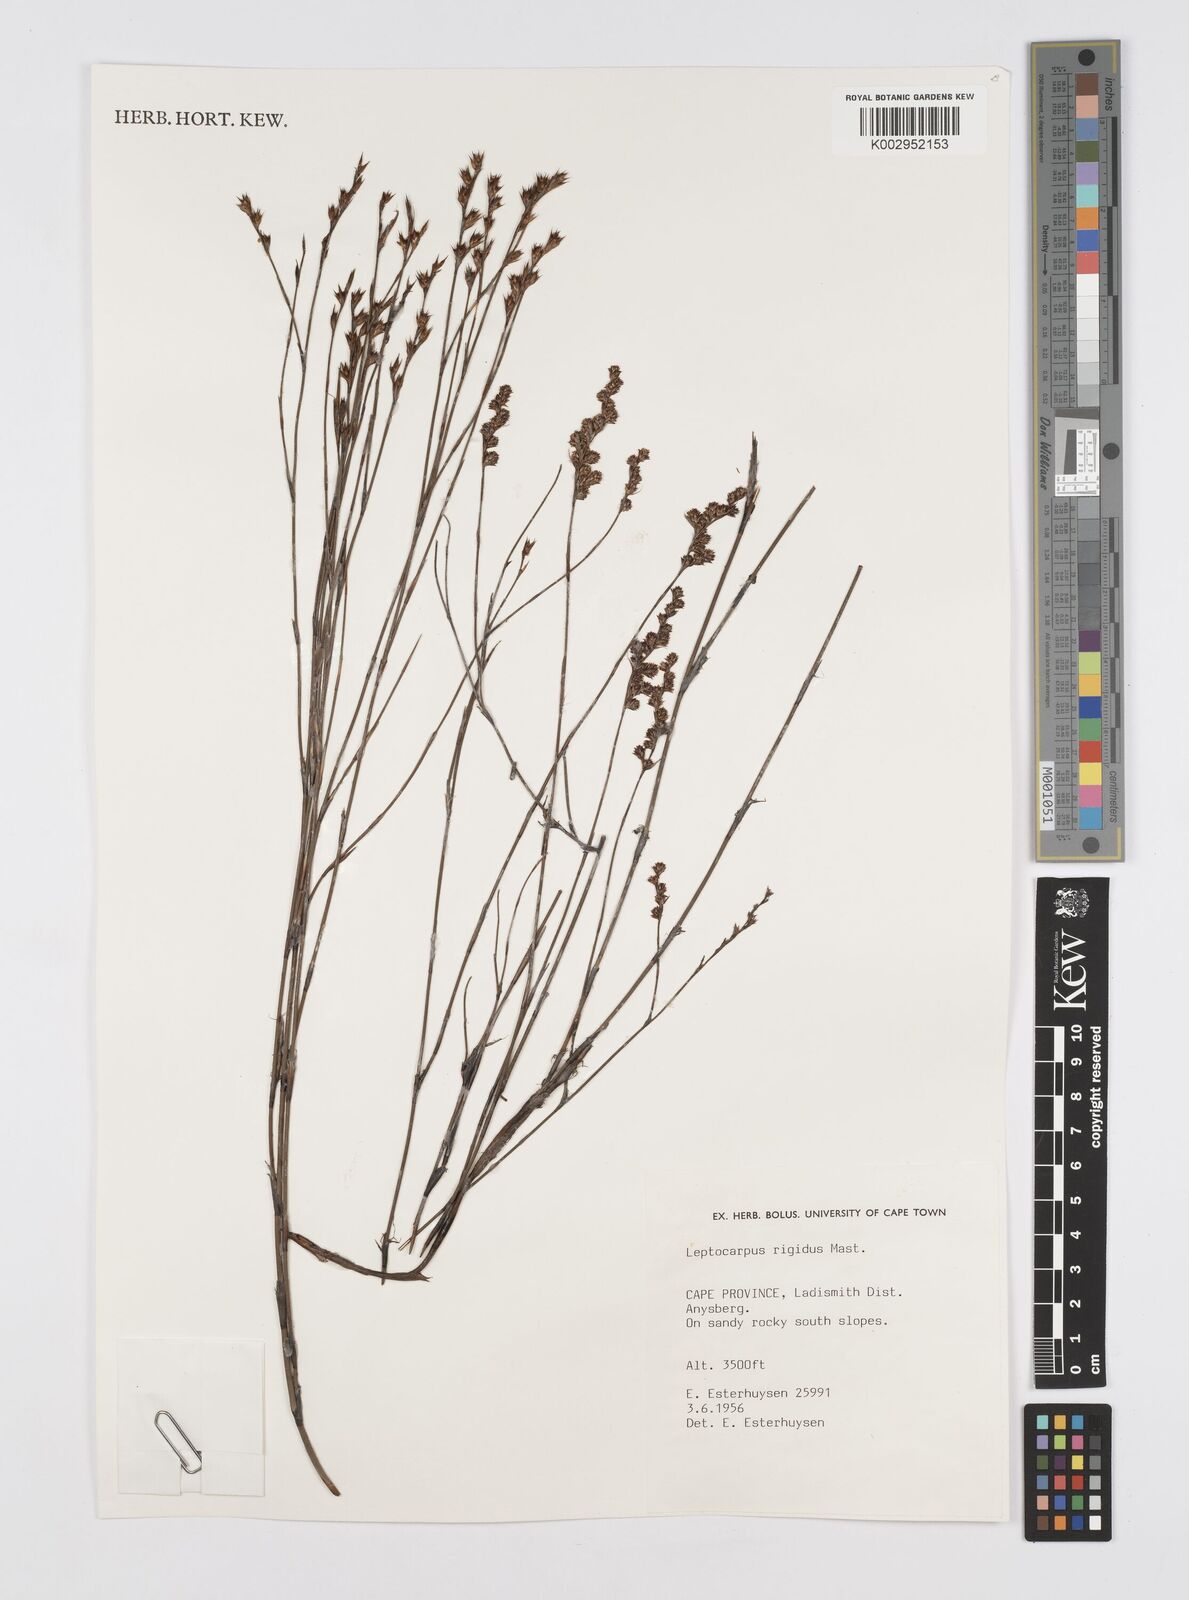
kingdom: Plantae
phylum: Tracheophyta
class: Liliopsida
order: Poales
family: Restionaceae
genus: Restio
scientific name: Restio rigidus
